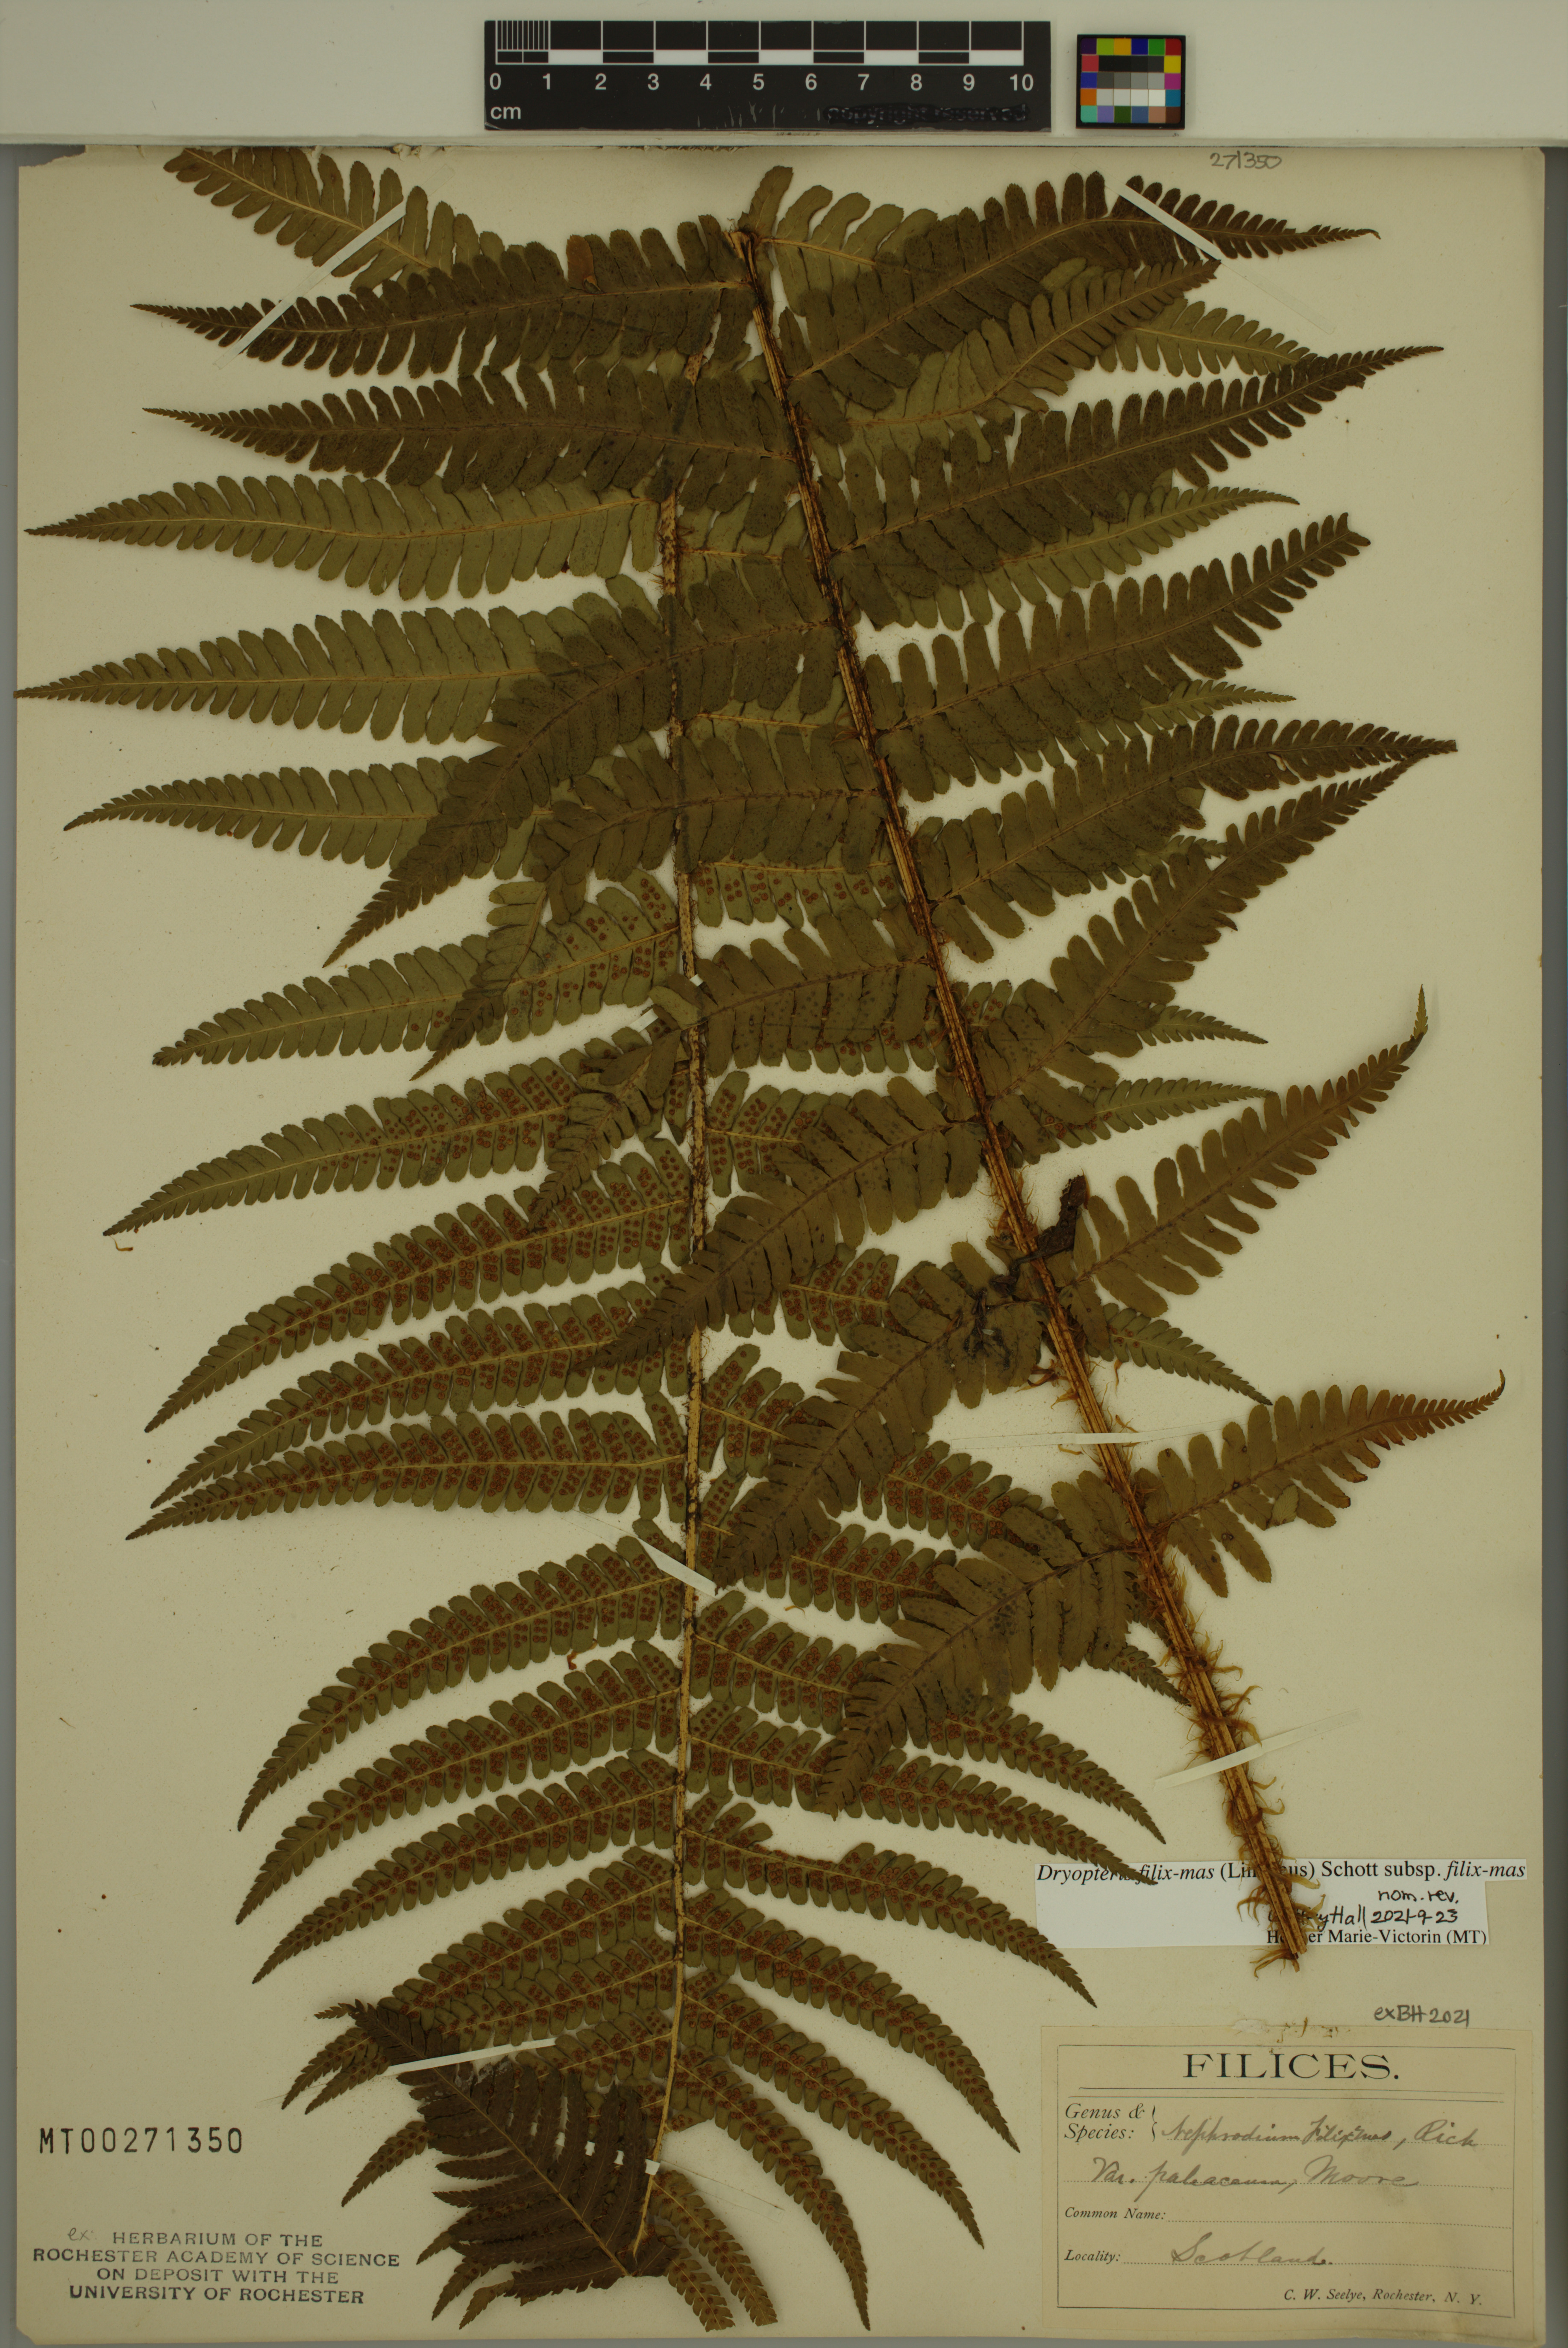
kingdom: Plantae
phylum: Tracheophyta
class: Polypodiopsida
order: Polypodiales
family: Dryopteridaceae
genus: Dryopteris
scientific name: Dryopteris filix-mas
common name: Male fern
